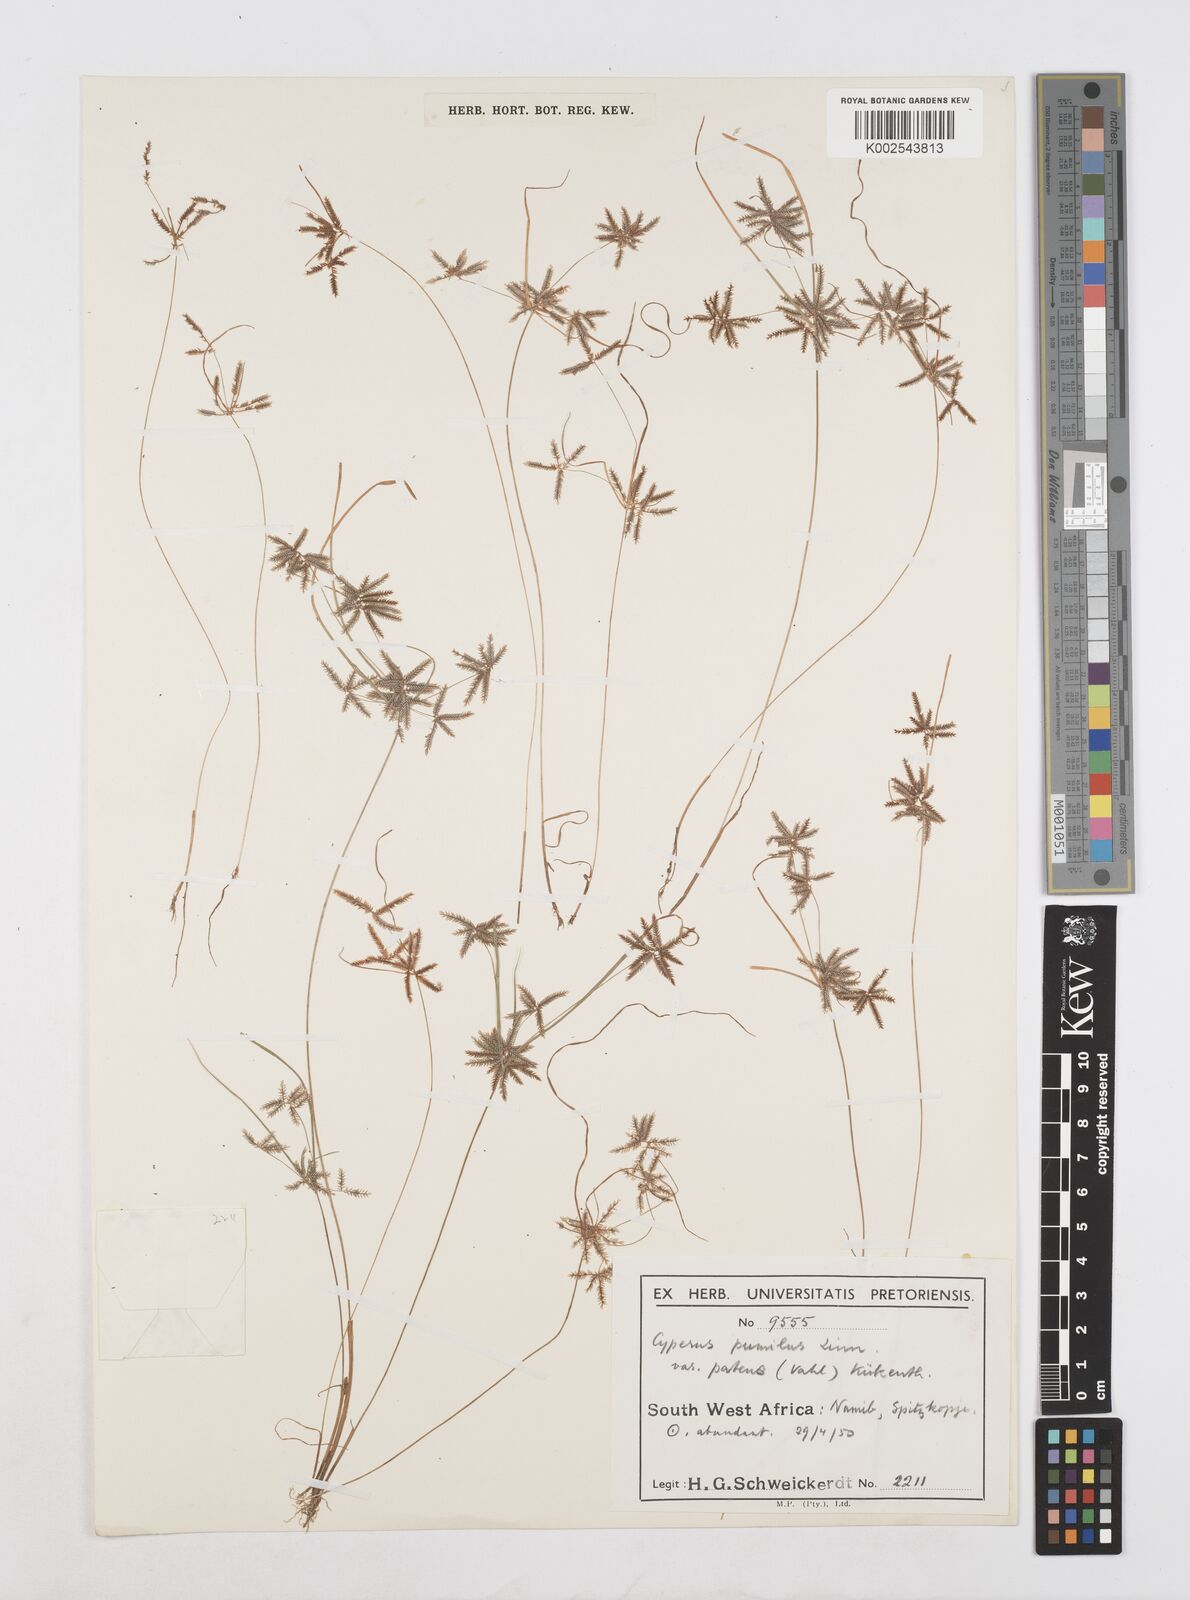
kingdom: Plantae
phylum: Tracheophyta
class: Liliopsida
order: Poales
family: Cyperaceae
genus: Cyperus
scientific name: Cyperus pumilus
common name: Low flatsedge
